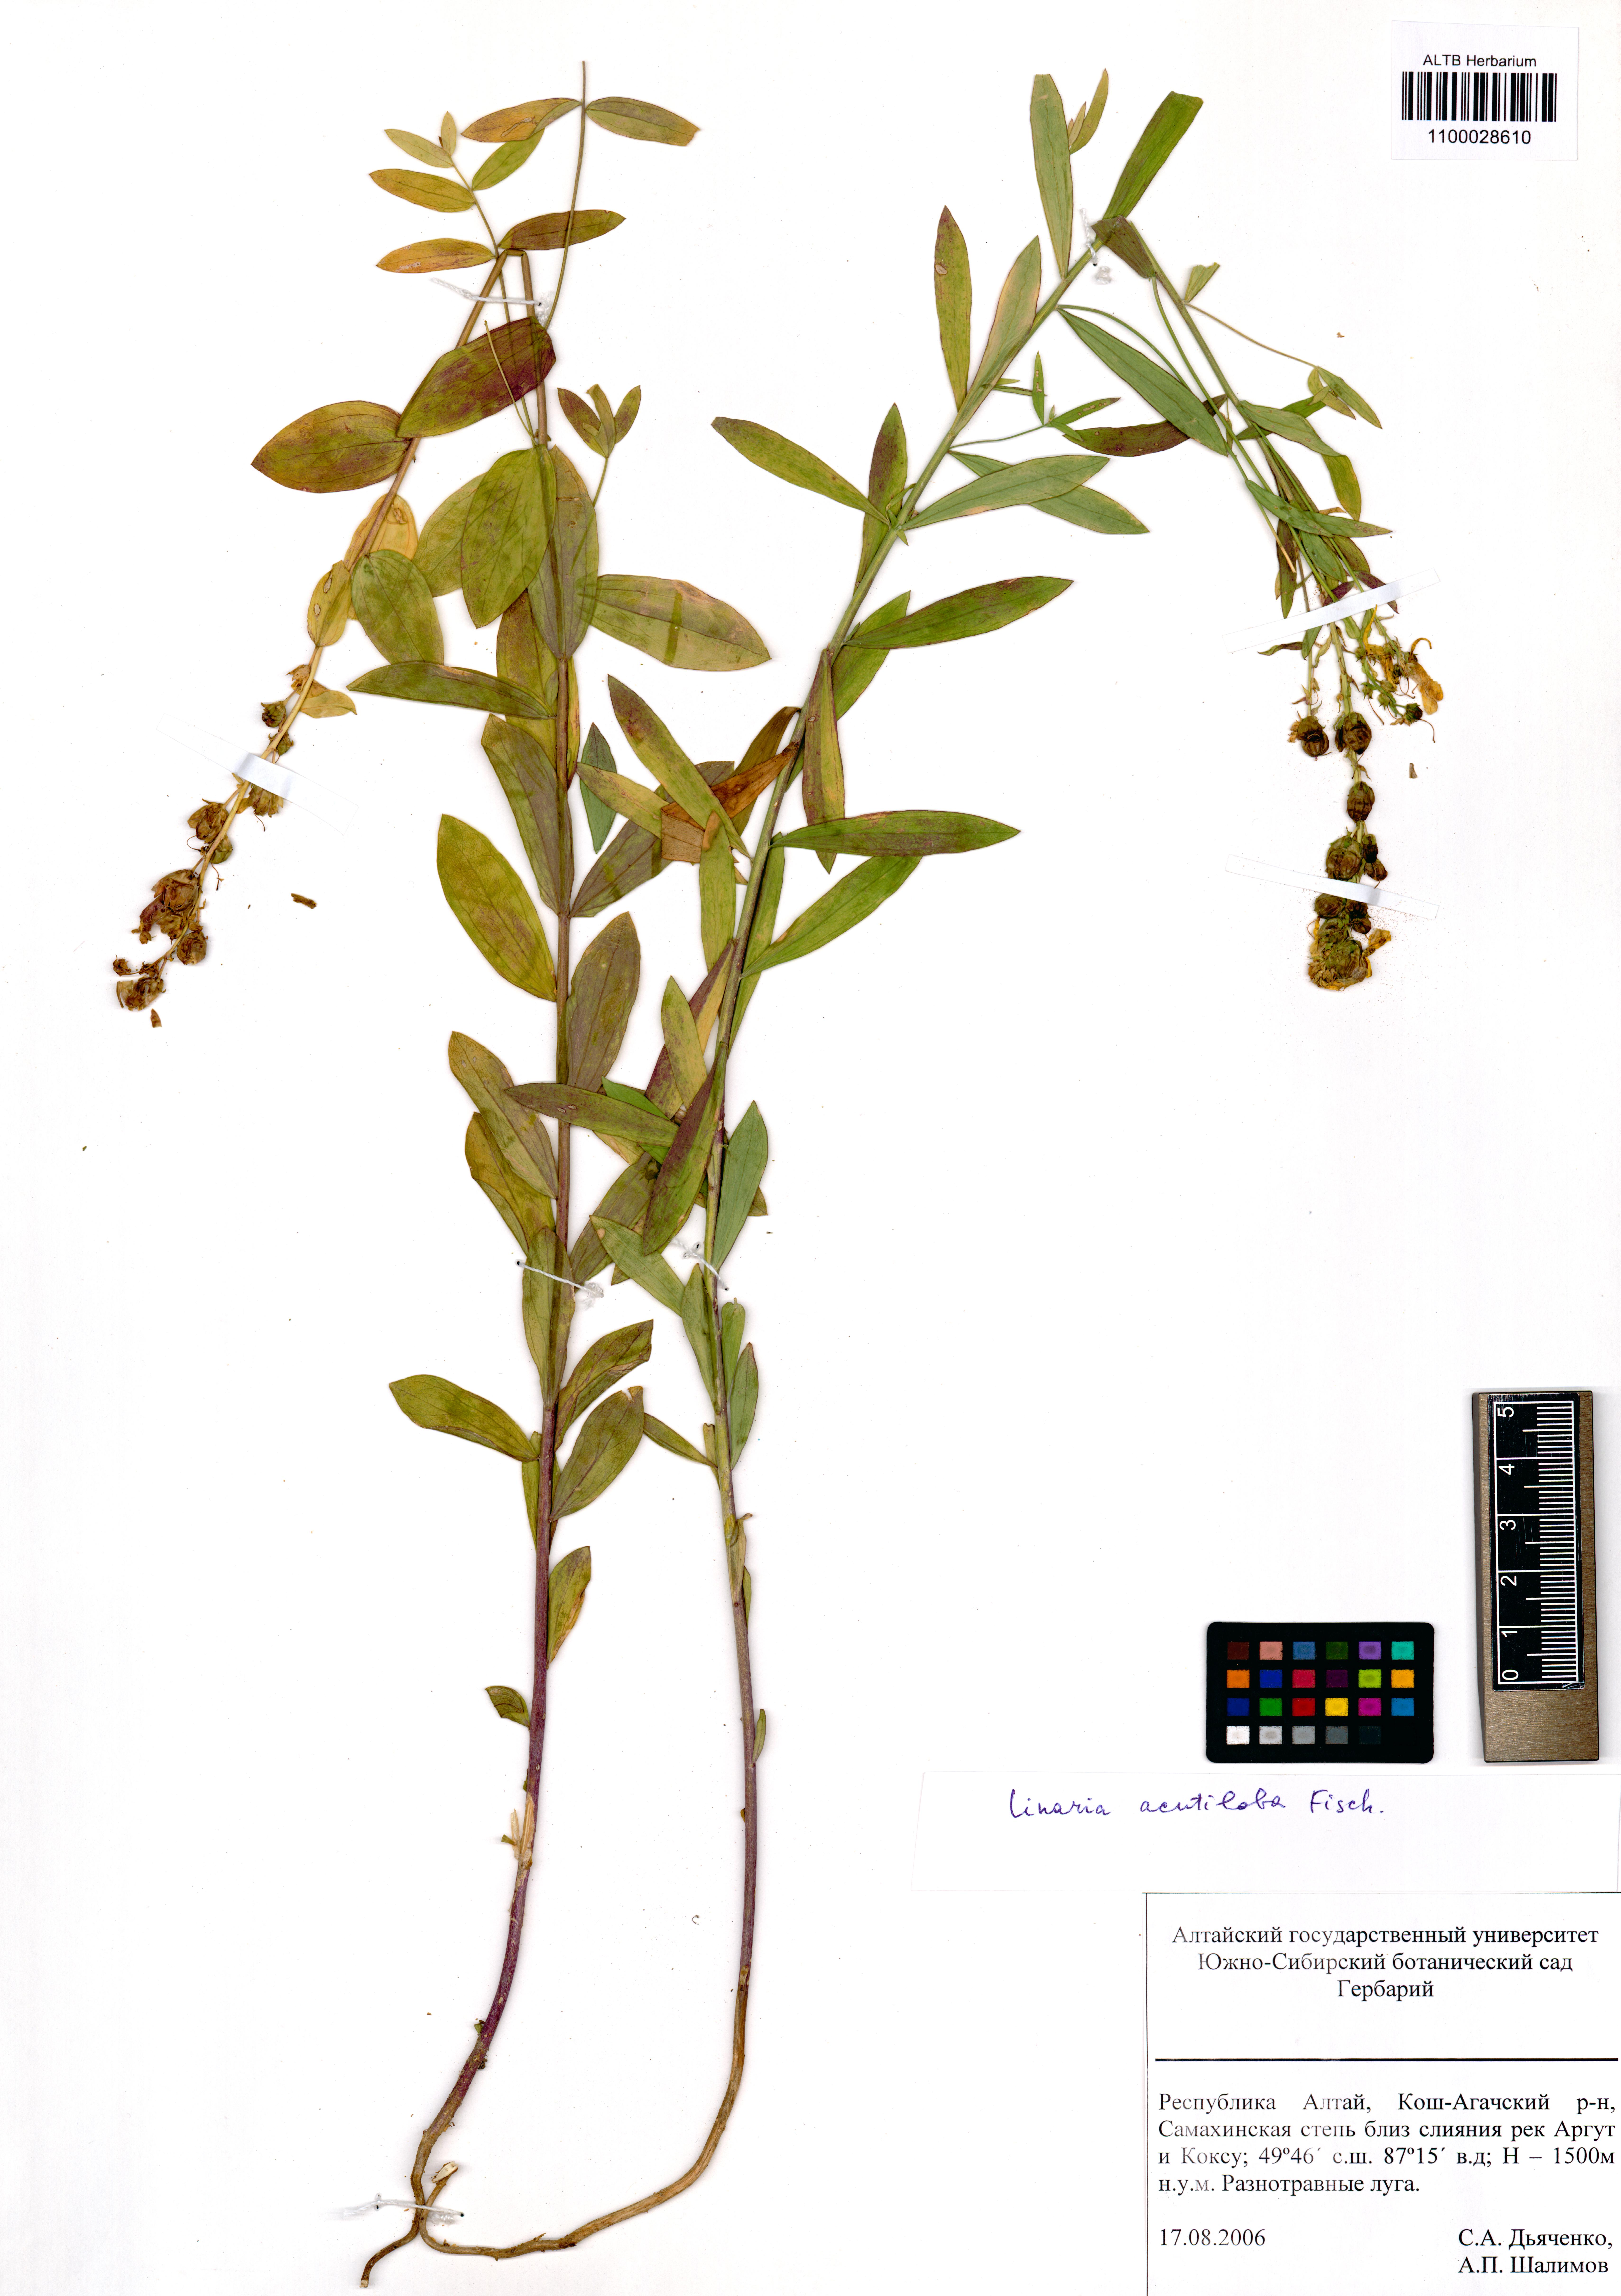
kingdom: Plantae
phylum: Tracheophyta
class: Magnoliopsida
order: Lamiales
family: Plantaginaceae
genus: Linaria
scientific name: Linaria acutiloba
